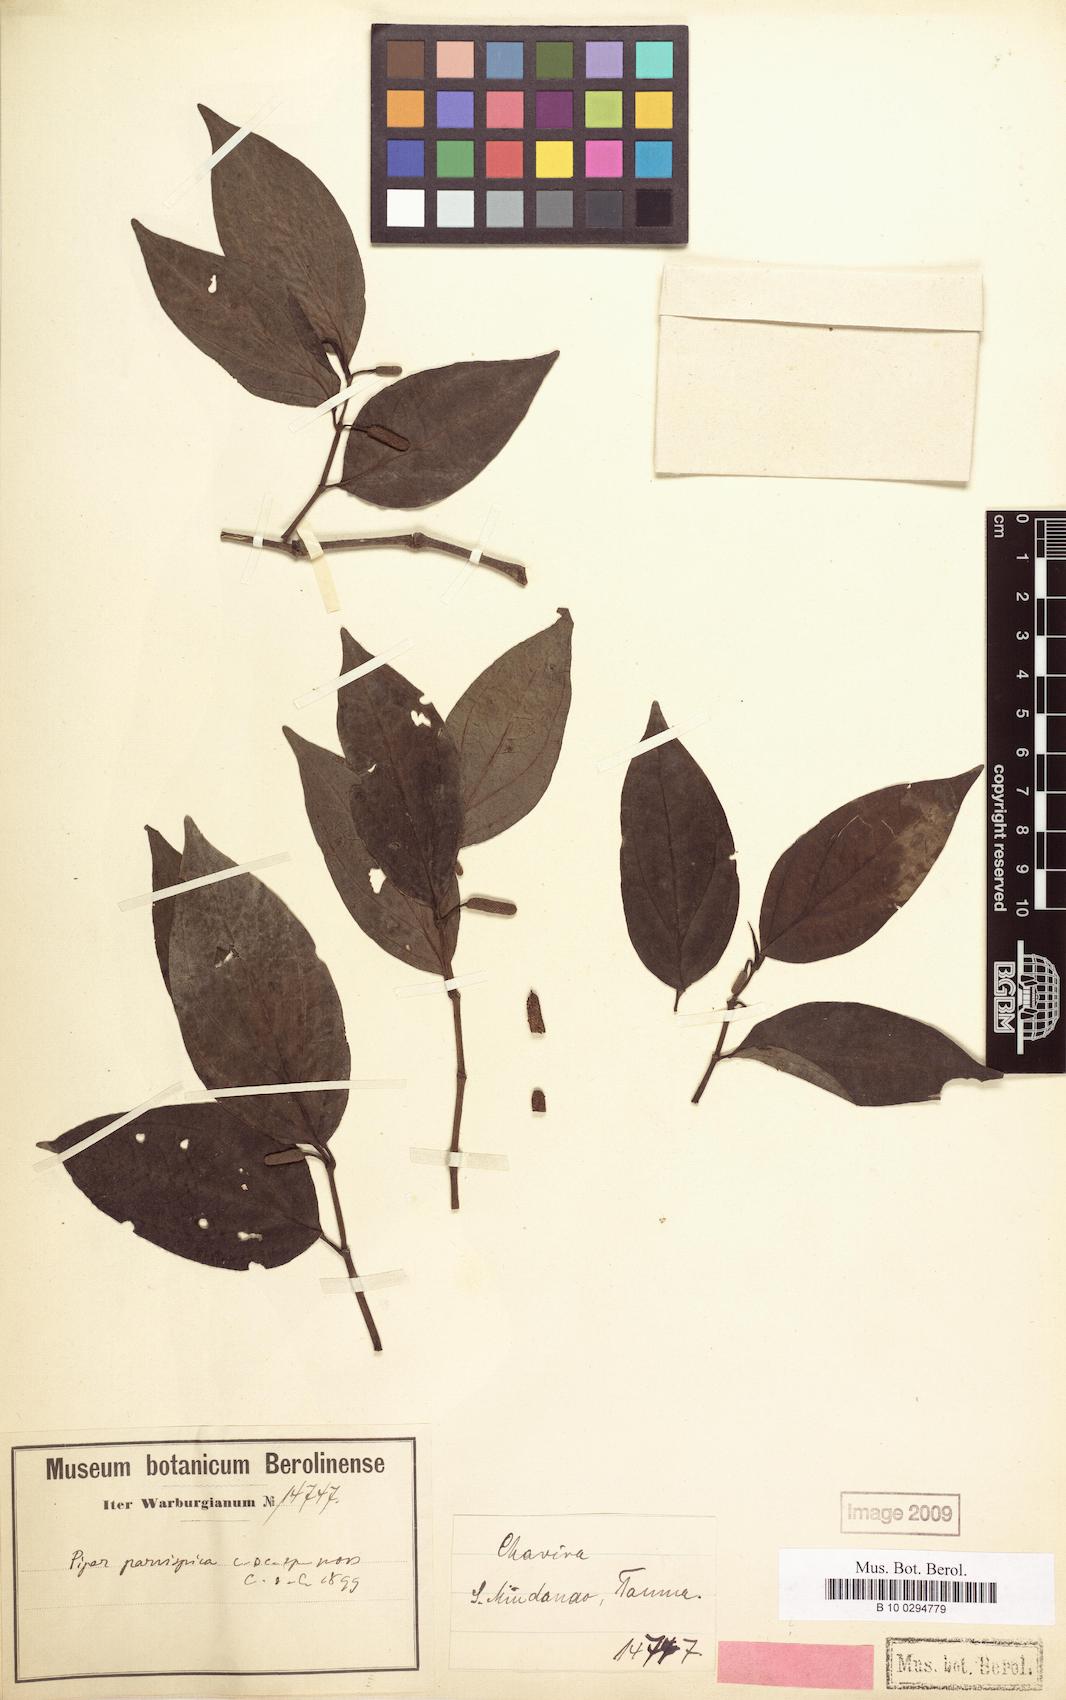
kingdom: Plantae
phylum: Tracheophyta
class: Magnoliopsida
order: Piperales
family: Piperaceae
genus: Piper
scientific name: Piper abbreviatum
